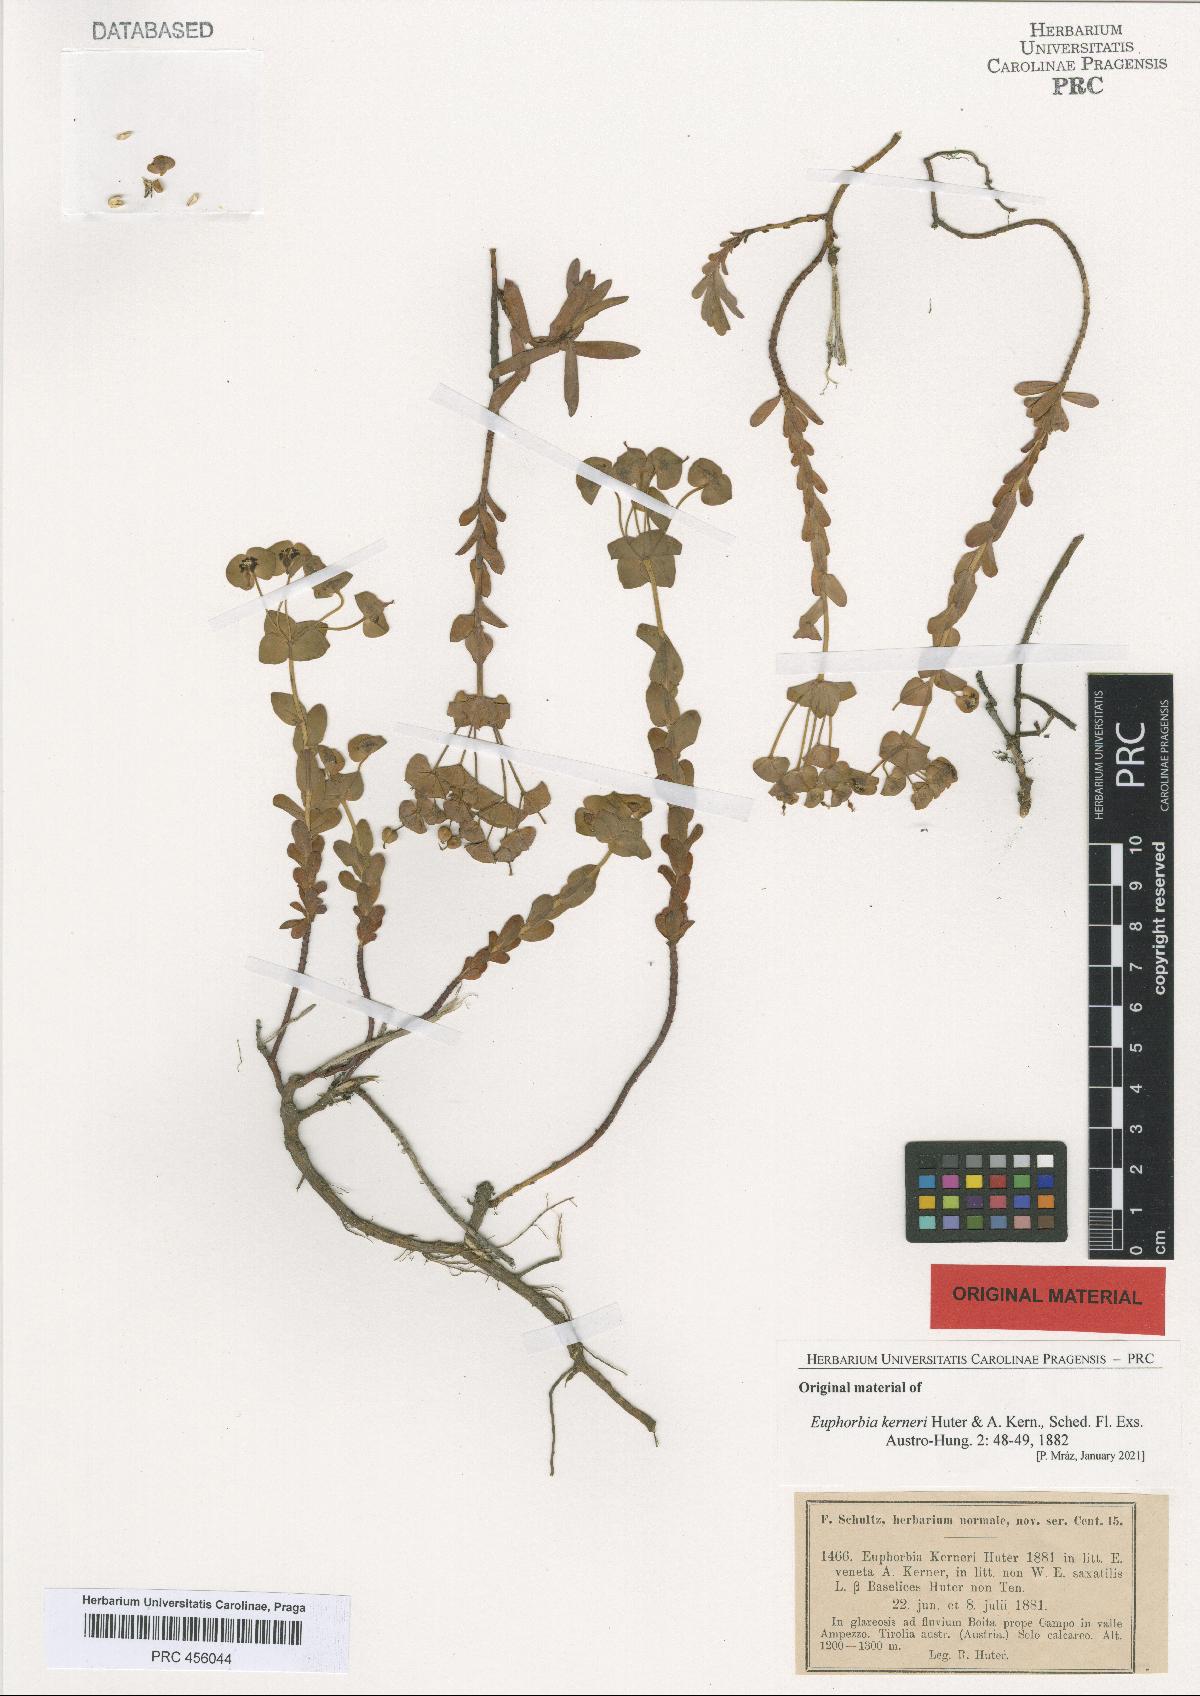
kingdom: Plantae
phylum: Tracheophyta
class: Magnoliopsida
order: Malpighiales
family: Euphorbiaceae
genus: Euphorbia
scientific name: Euphorbia kerneri
